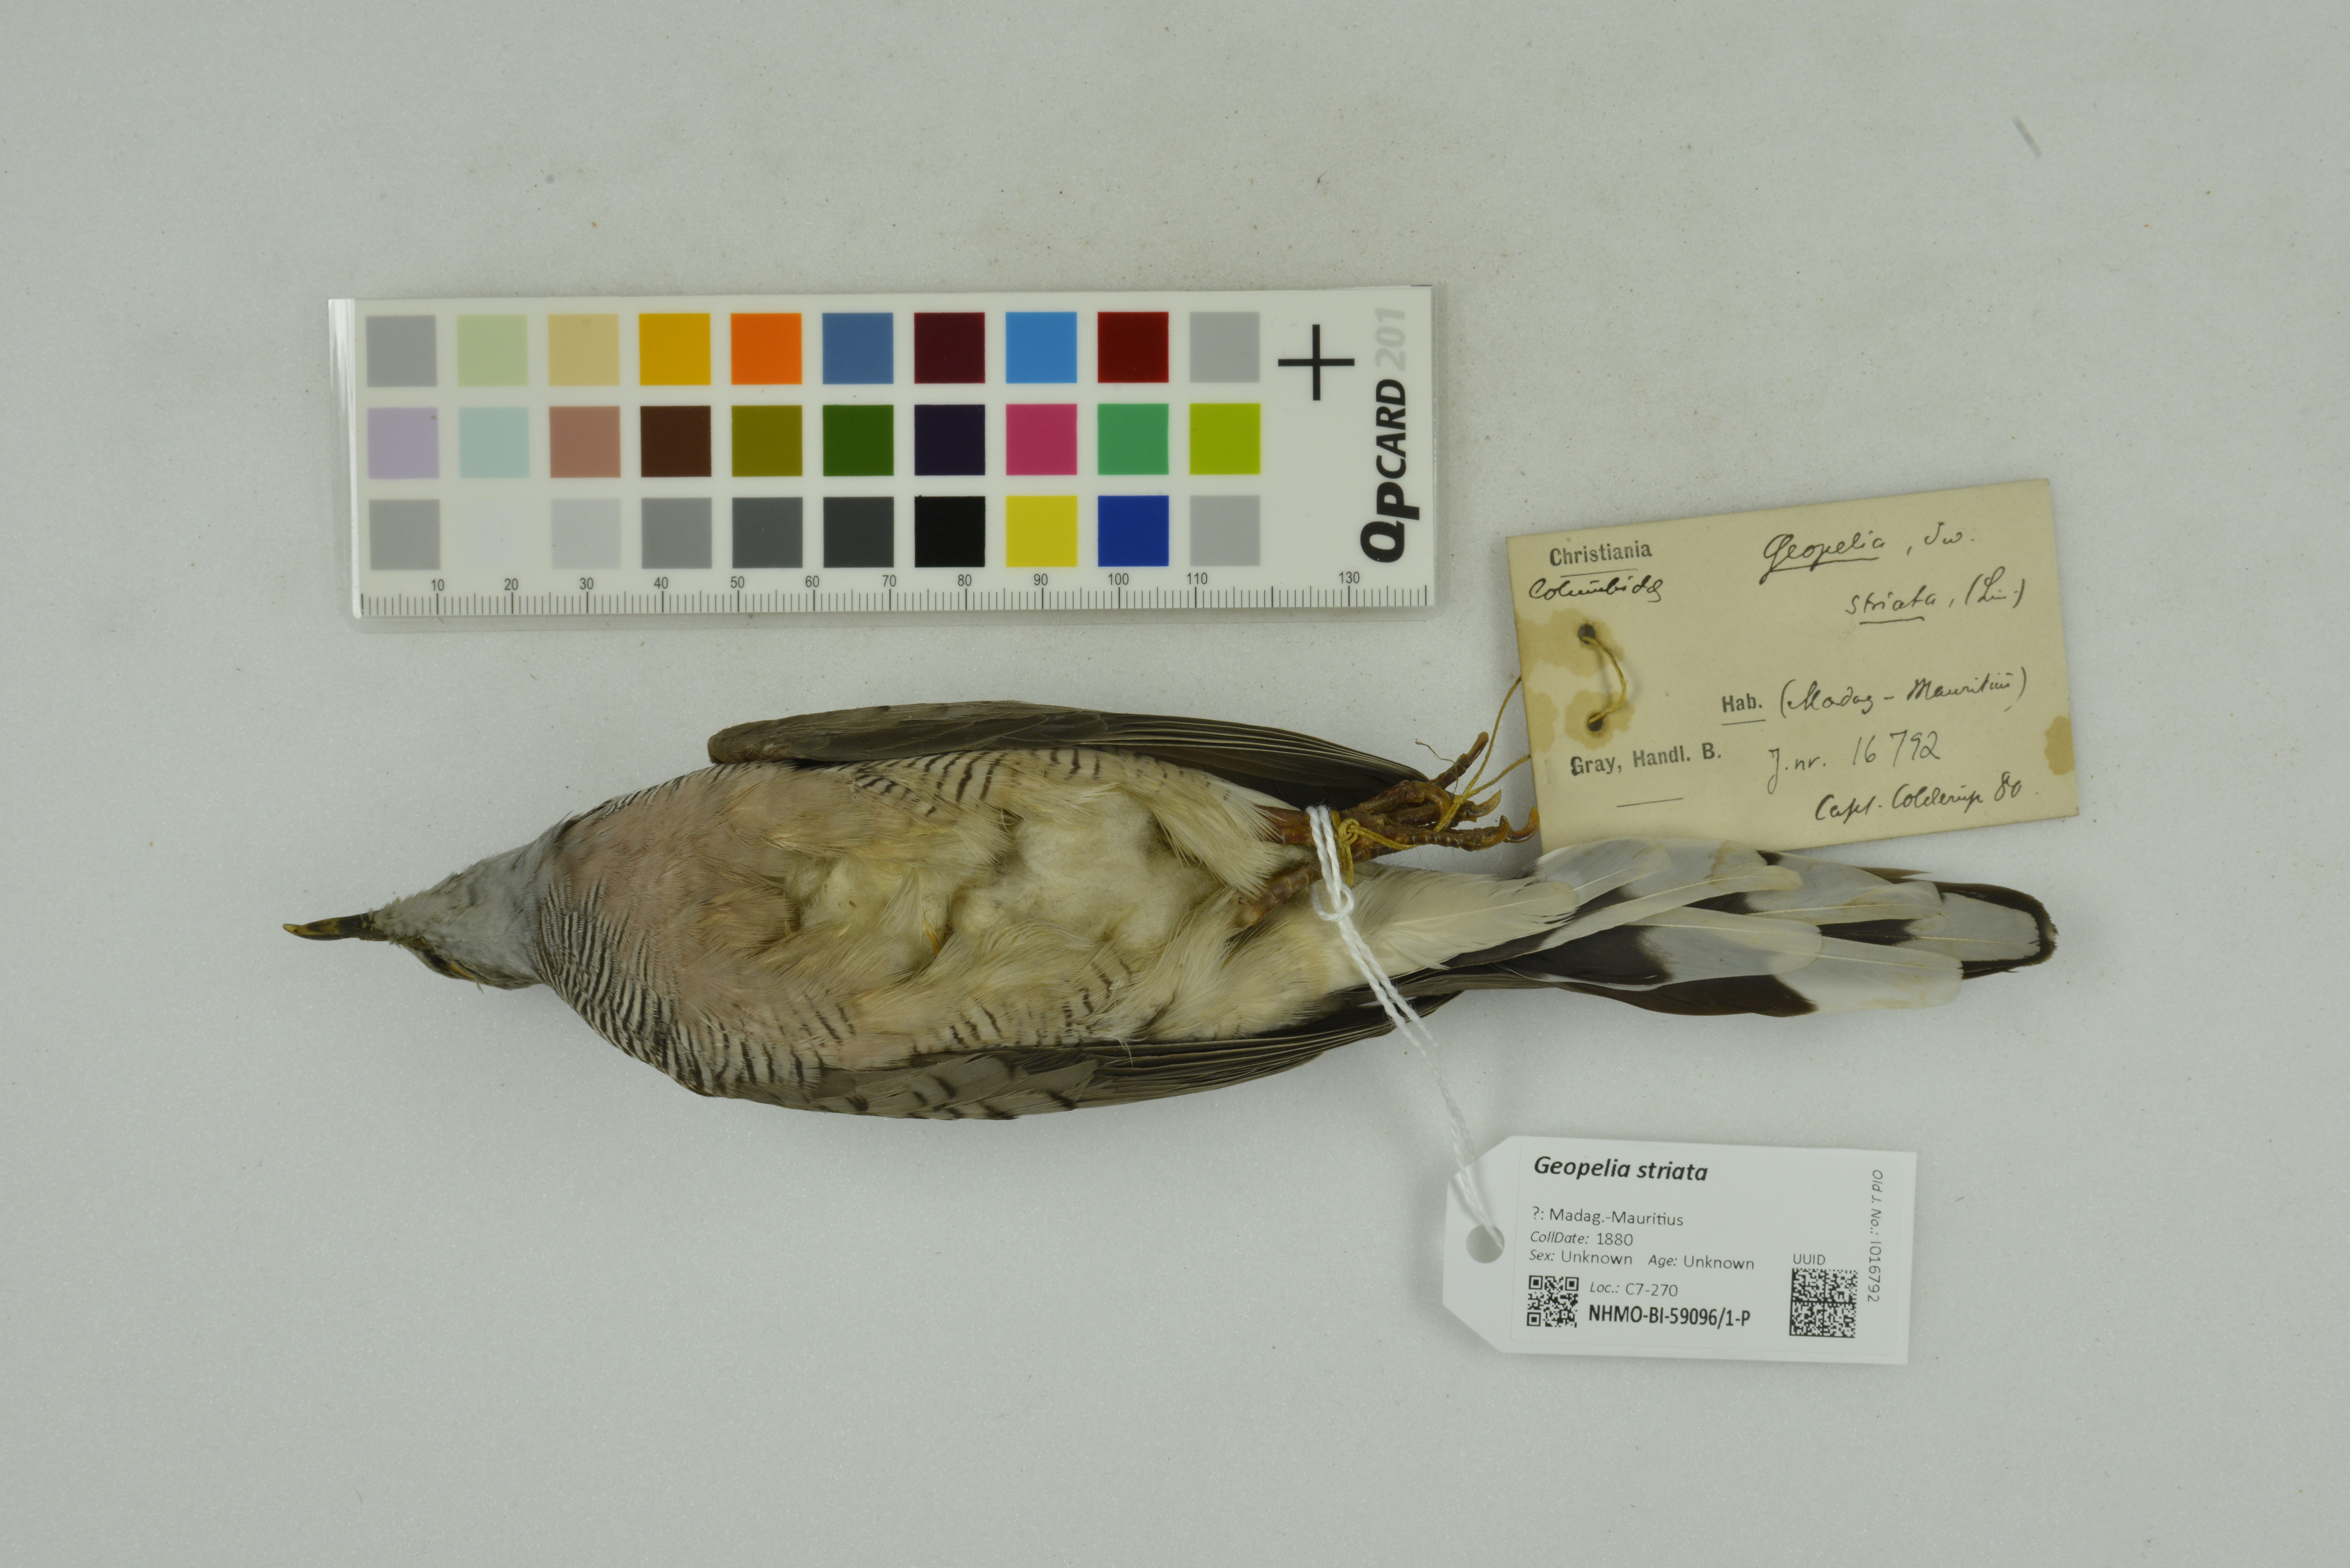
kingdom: Animalia
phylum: Chordata
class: Aves
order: Columbiformes
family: Columbidae
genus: Geopelia
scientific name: Geopelia striata
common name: Zebra dove
